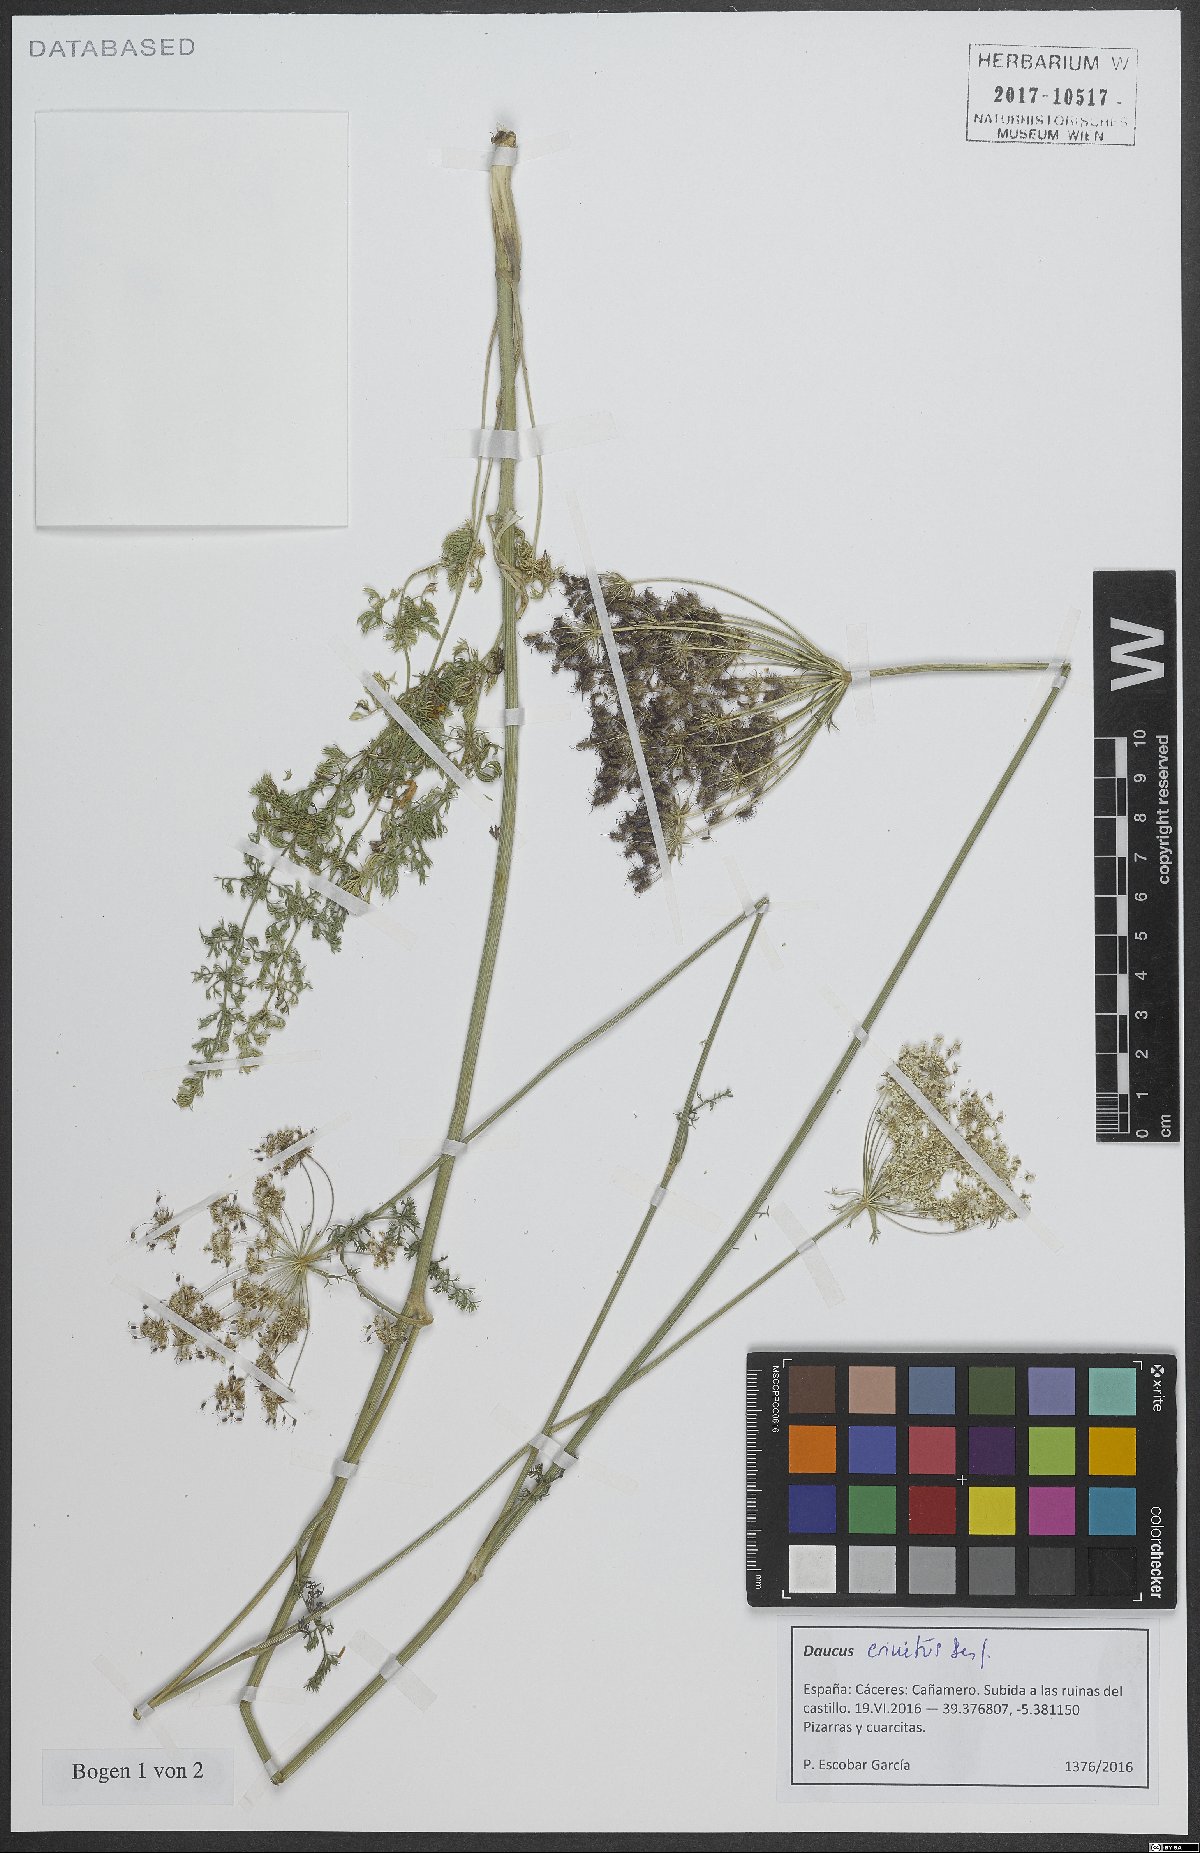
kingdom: Plantae
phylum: Tracheophyta
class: Magnoliopsida
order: Apiales
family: Apiaceae
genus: Daucus
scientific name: Daucus crinitus
